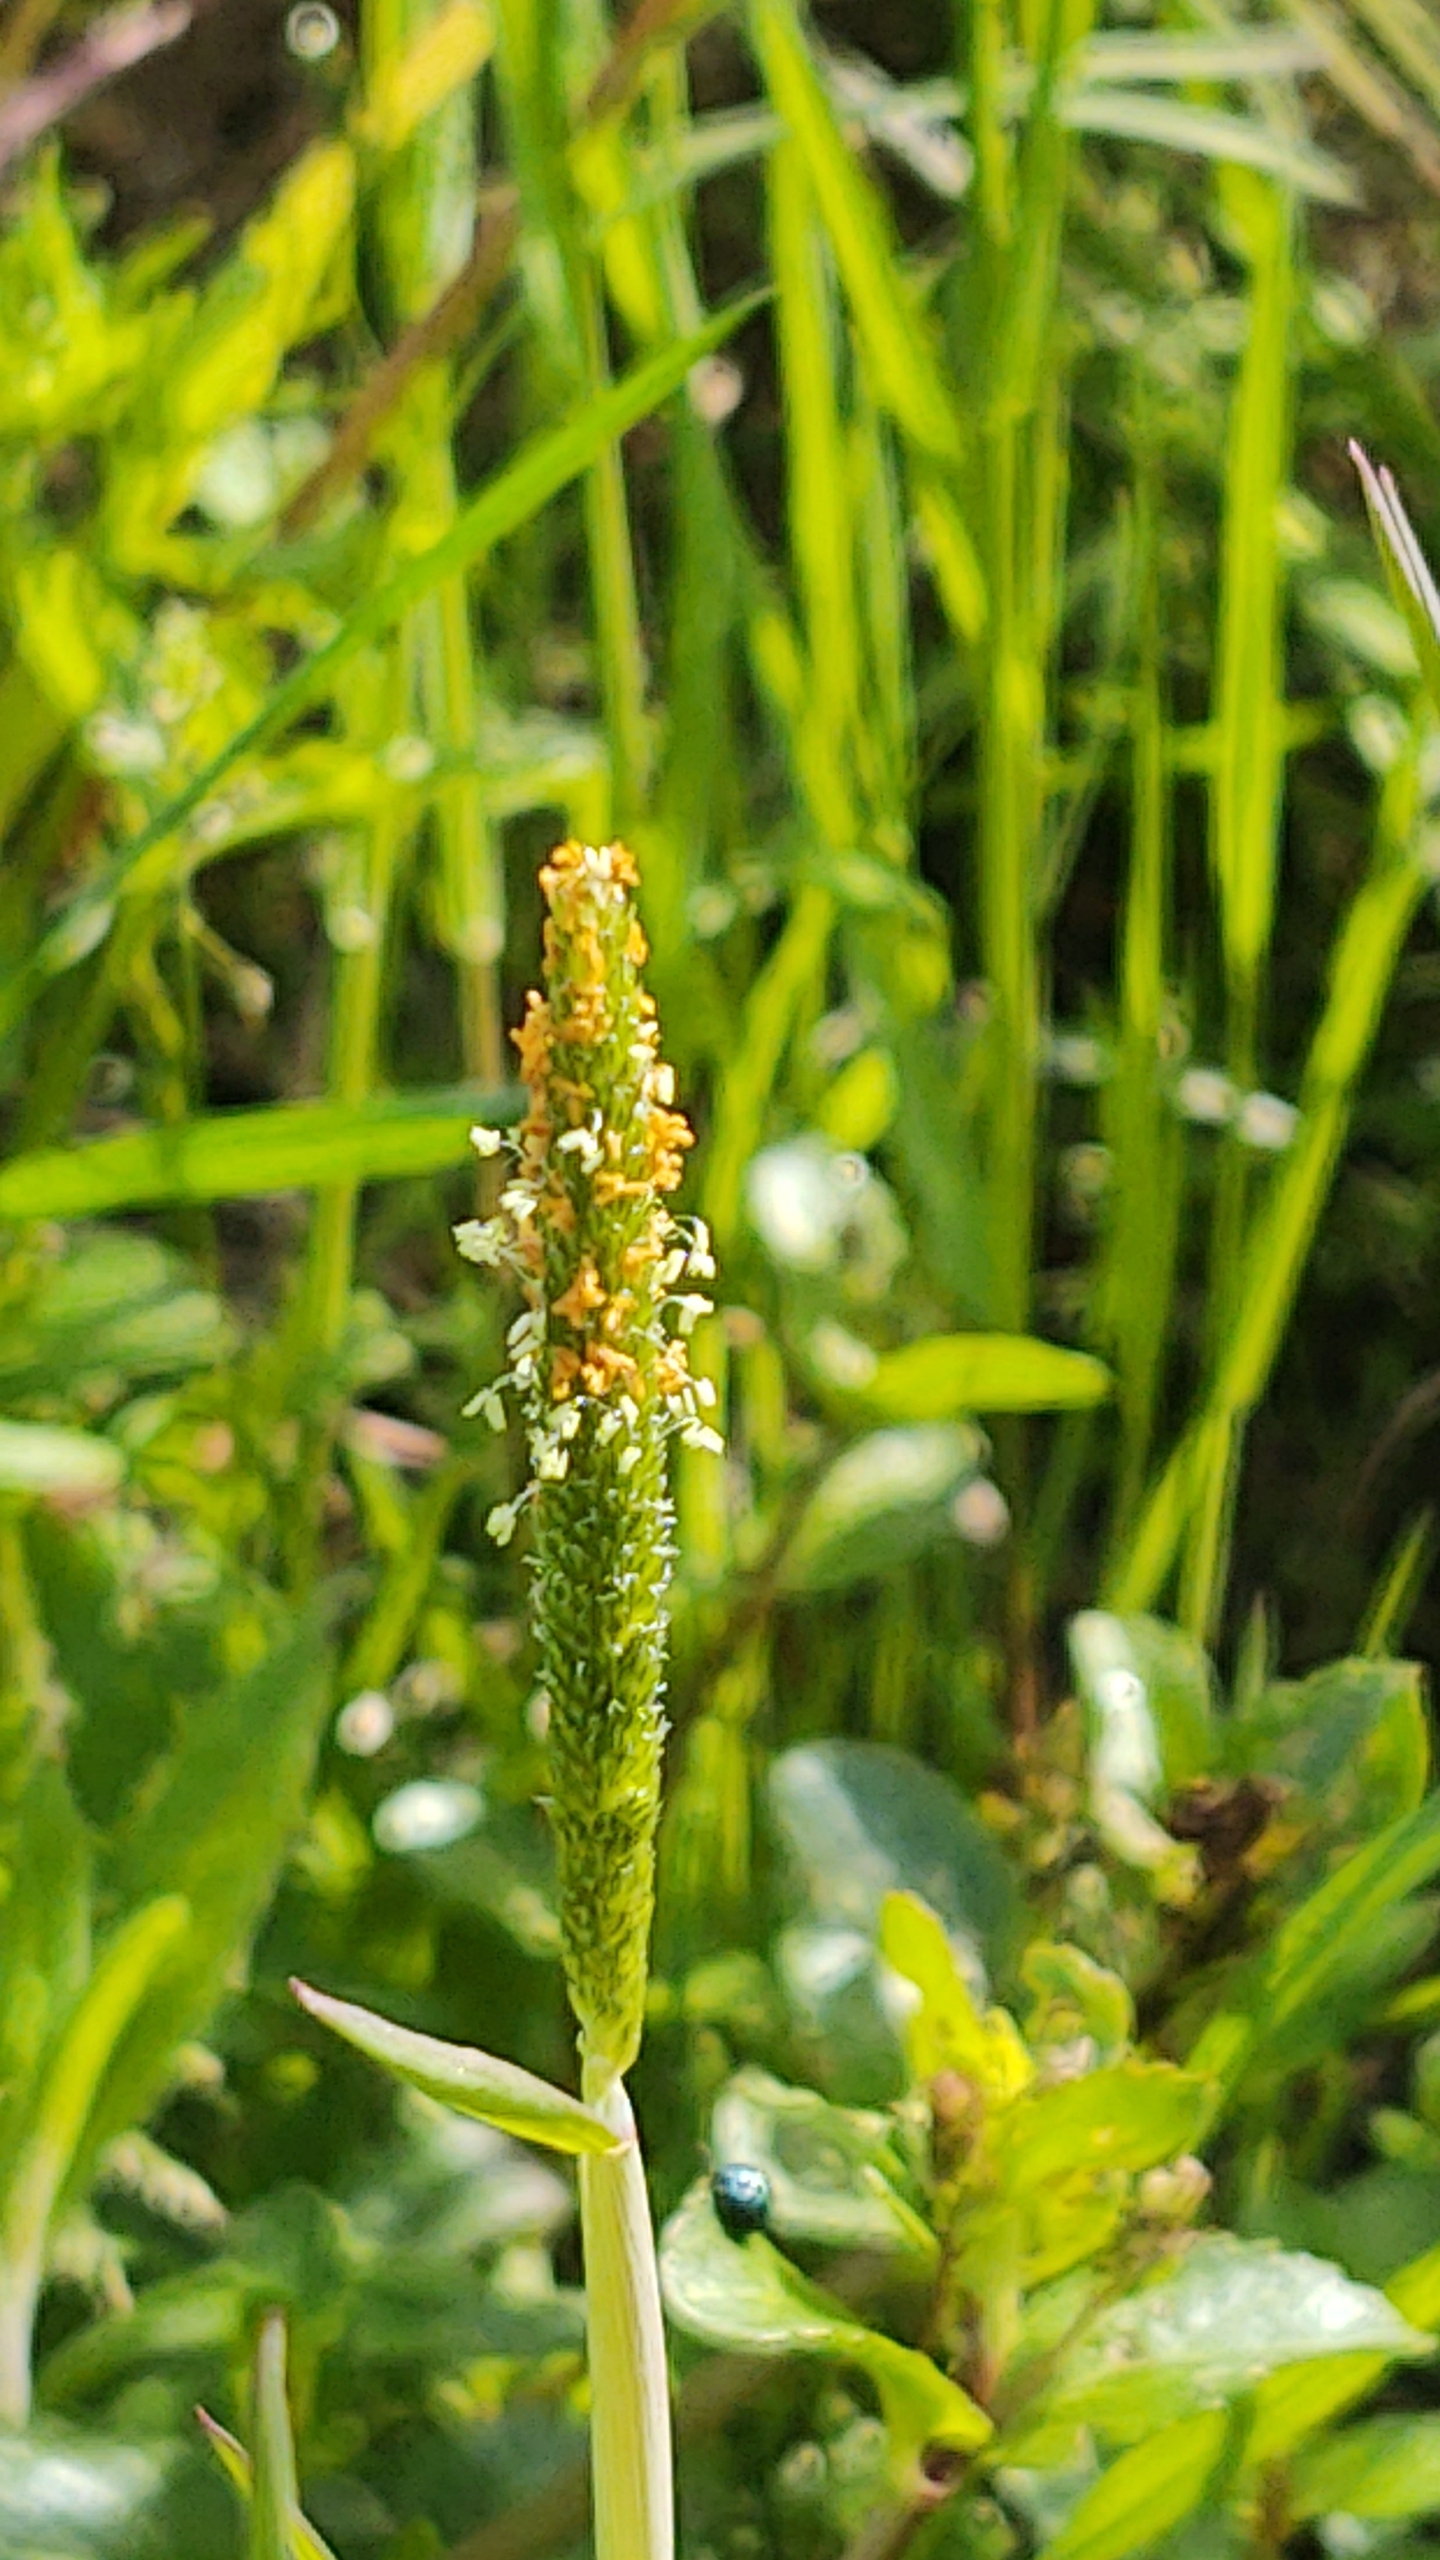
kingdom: Plantae
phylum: Tracheophyta
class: Liliopsida
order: Poales
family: Poaceae
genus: Alopecurus
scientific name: Alopecurus aequalis
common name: Gul rævehale
